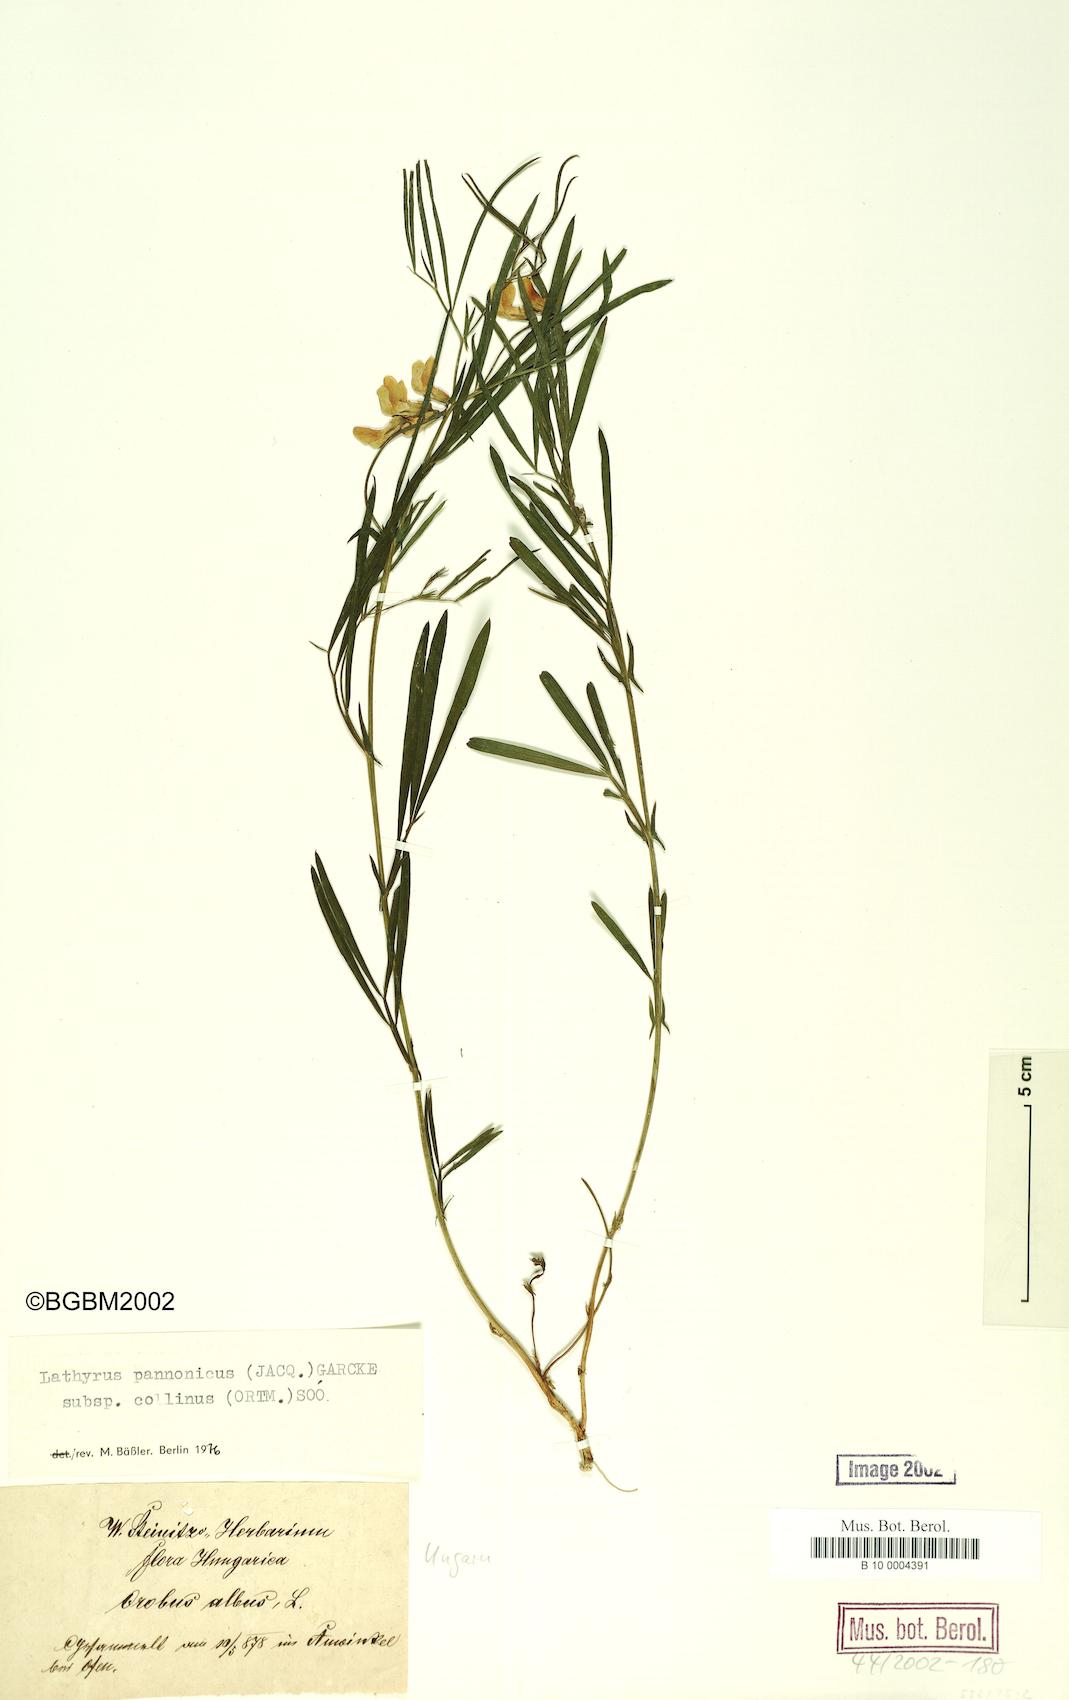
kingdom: Plantae
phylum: Tracheophyta
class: Magnoliopsida
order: Fabales
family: Fabaceae
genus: Lathyrus
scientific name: Lathyrus pannonicus
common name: Pea
